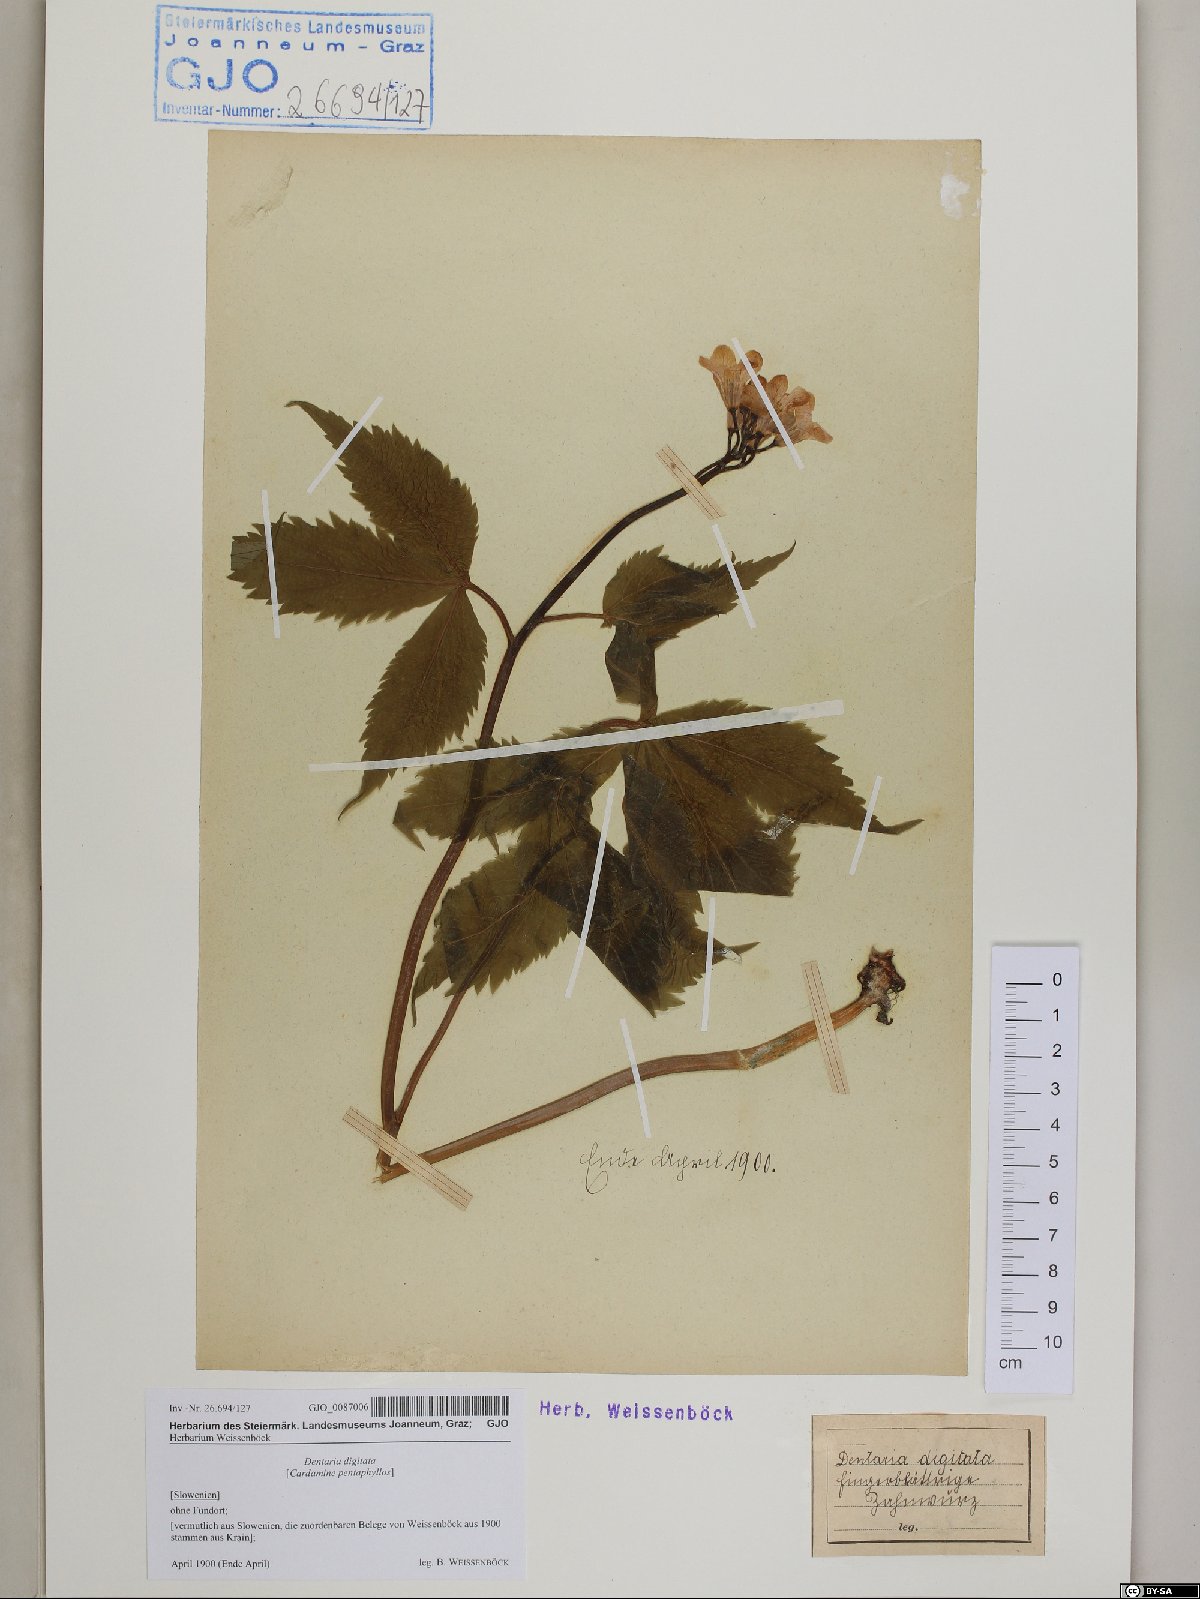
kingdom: Plantae
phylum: Tracheophyta
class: Magnoliopsida
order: Brassicales
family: Brassicaceae
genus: Cardamine
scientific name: Cardamine pentaphyllos
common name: Five-leaflet bitter-cress
